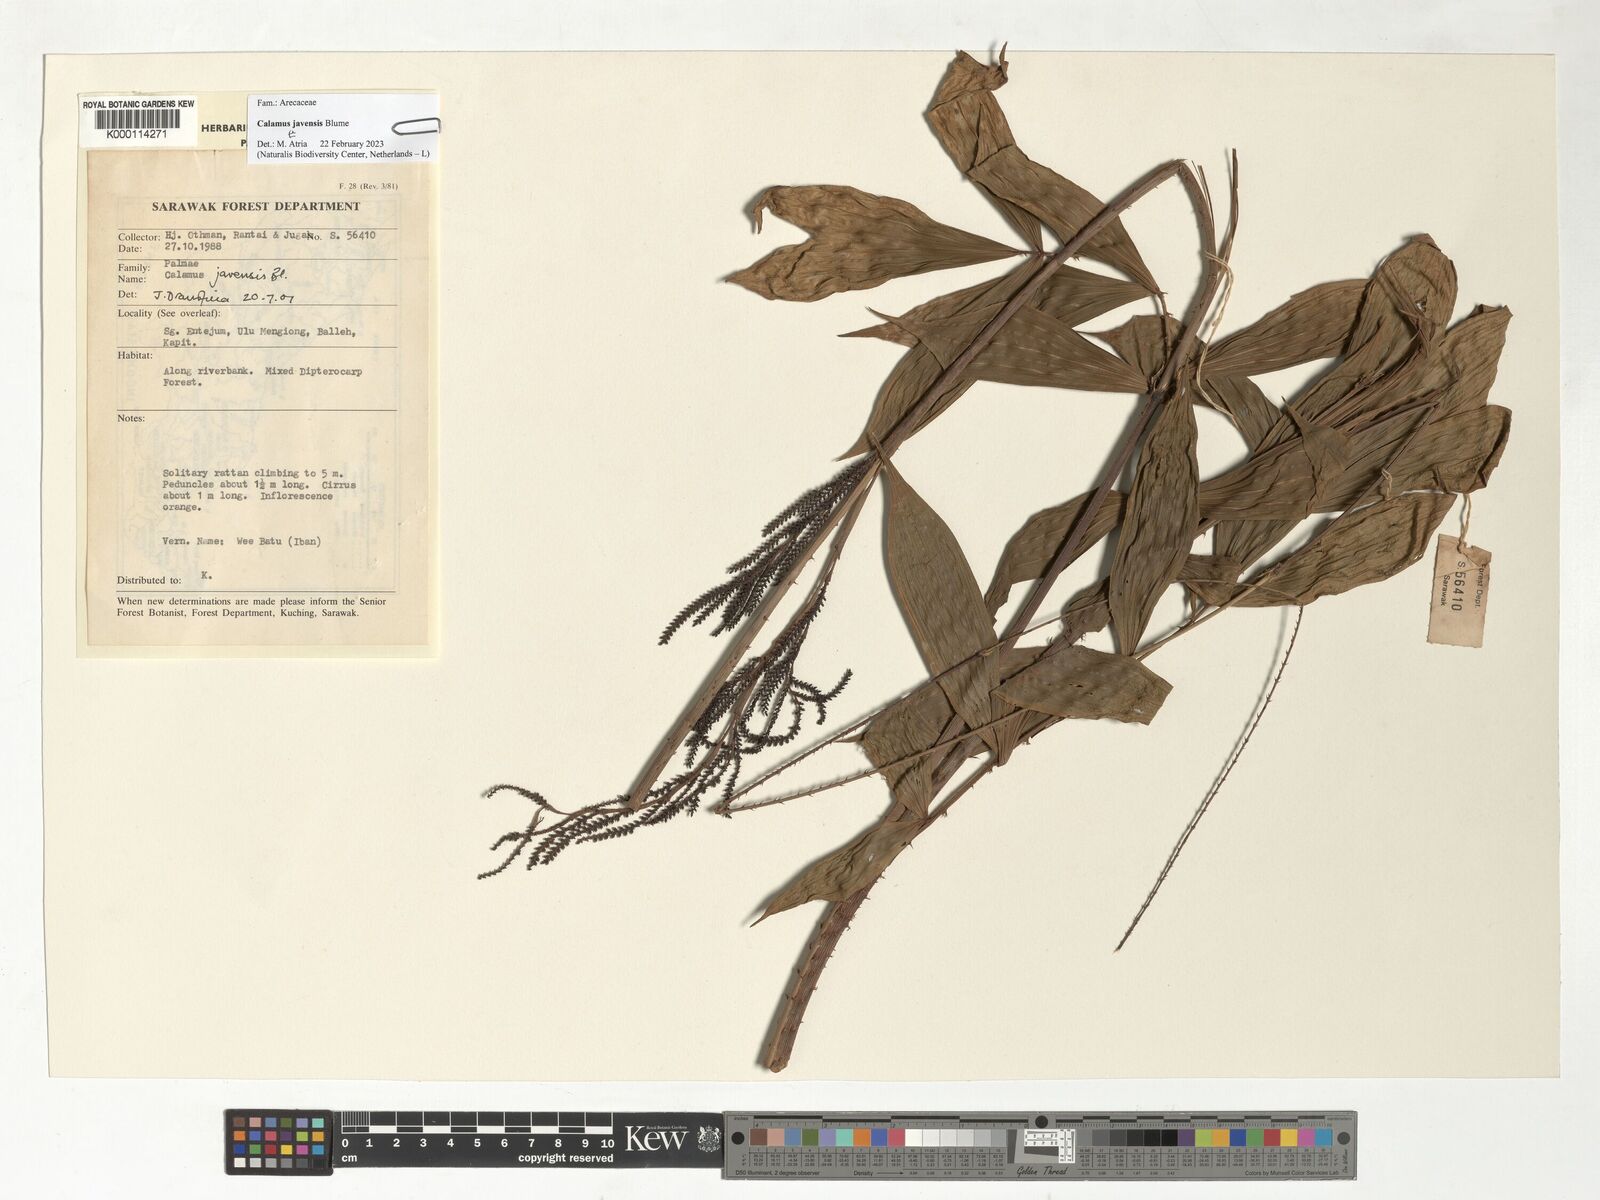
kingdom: Plantae
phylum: Tracheophyta
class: Liliopsida
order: Arecales
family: Arecaceae
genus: Calamus
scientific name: Calamus javensis
